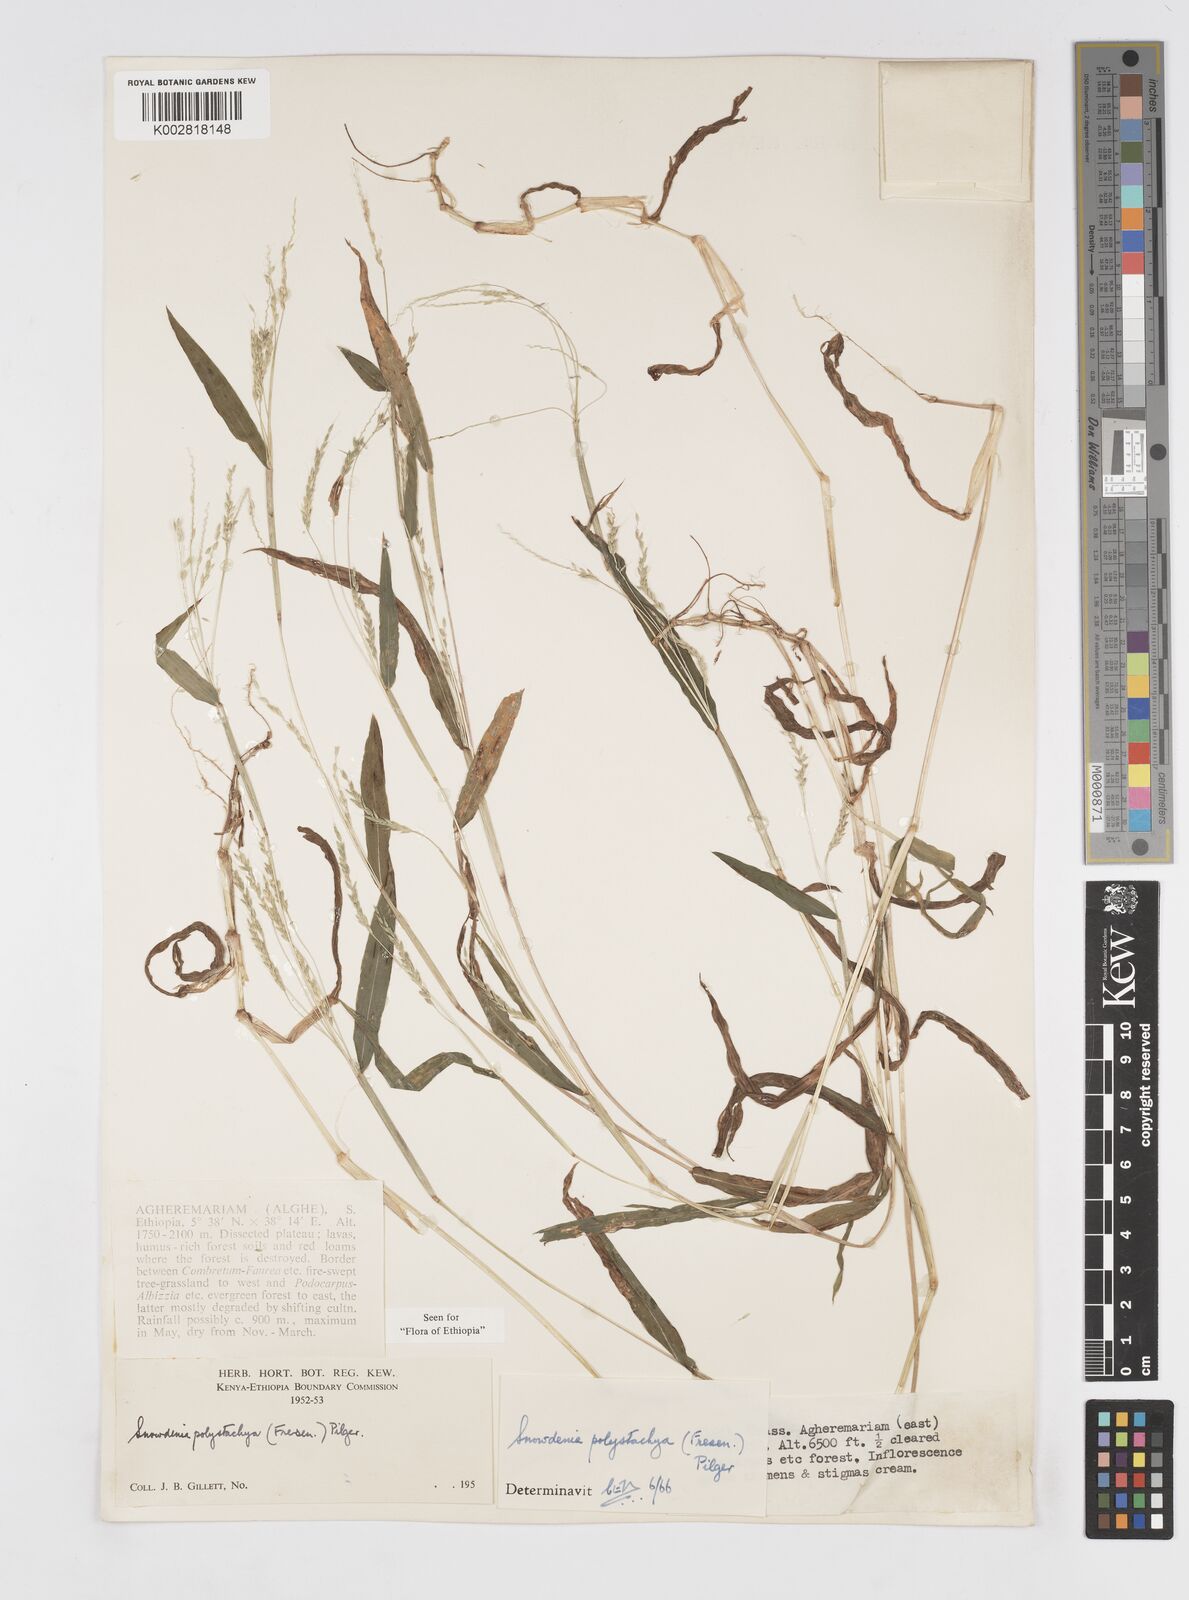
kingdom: Plantae
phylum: Tracheophyta
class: Liliopsida
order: Poales
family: Poaceae
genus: Snowdenia
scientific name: Snowdenia polystachya
